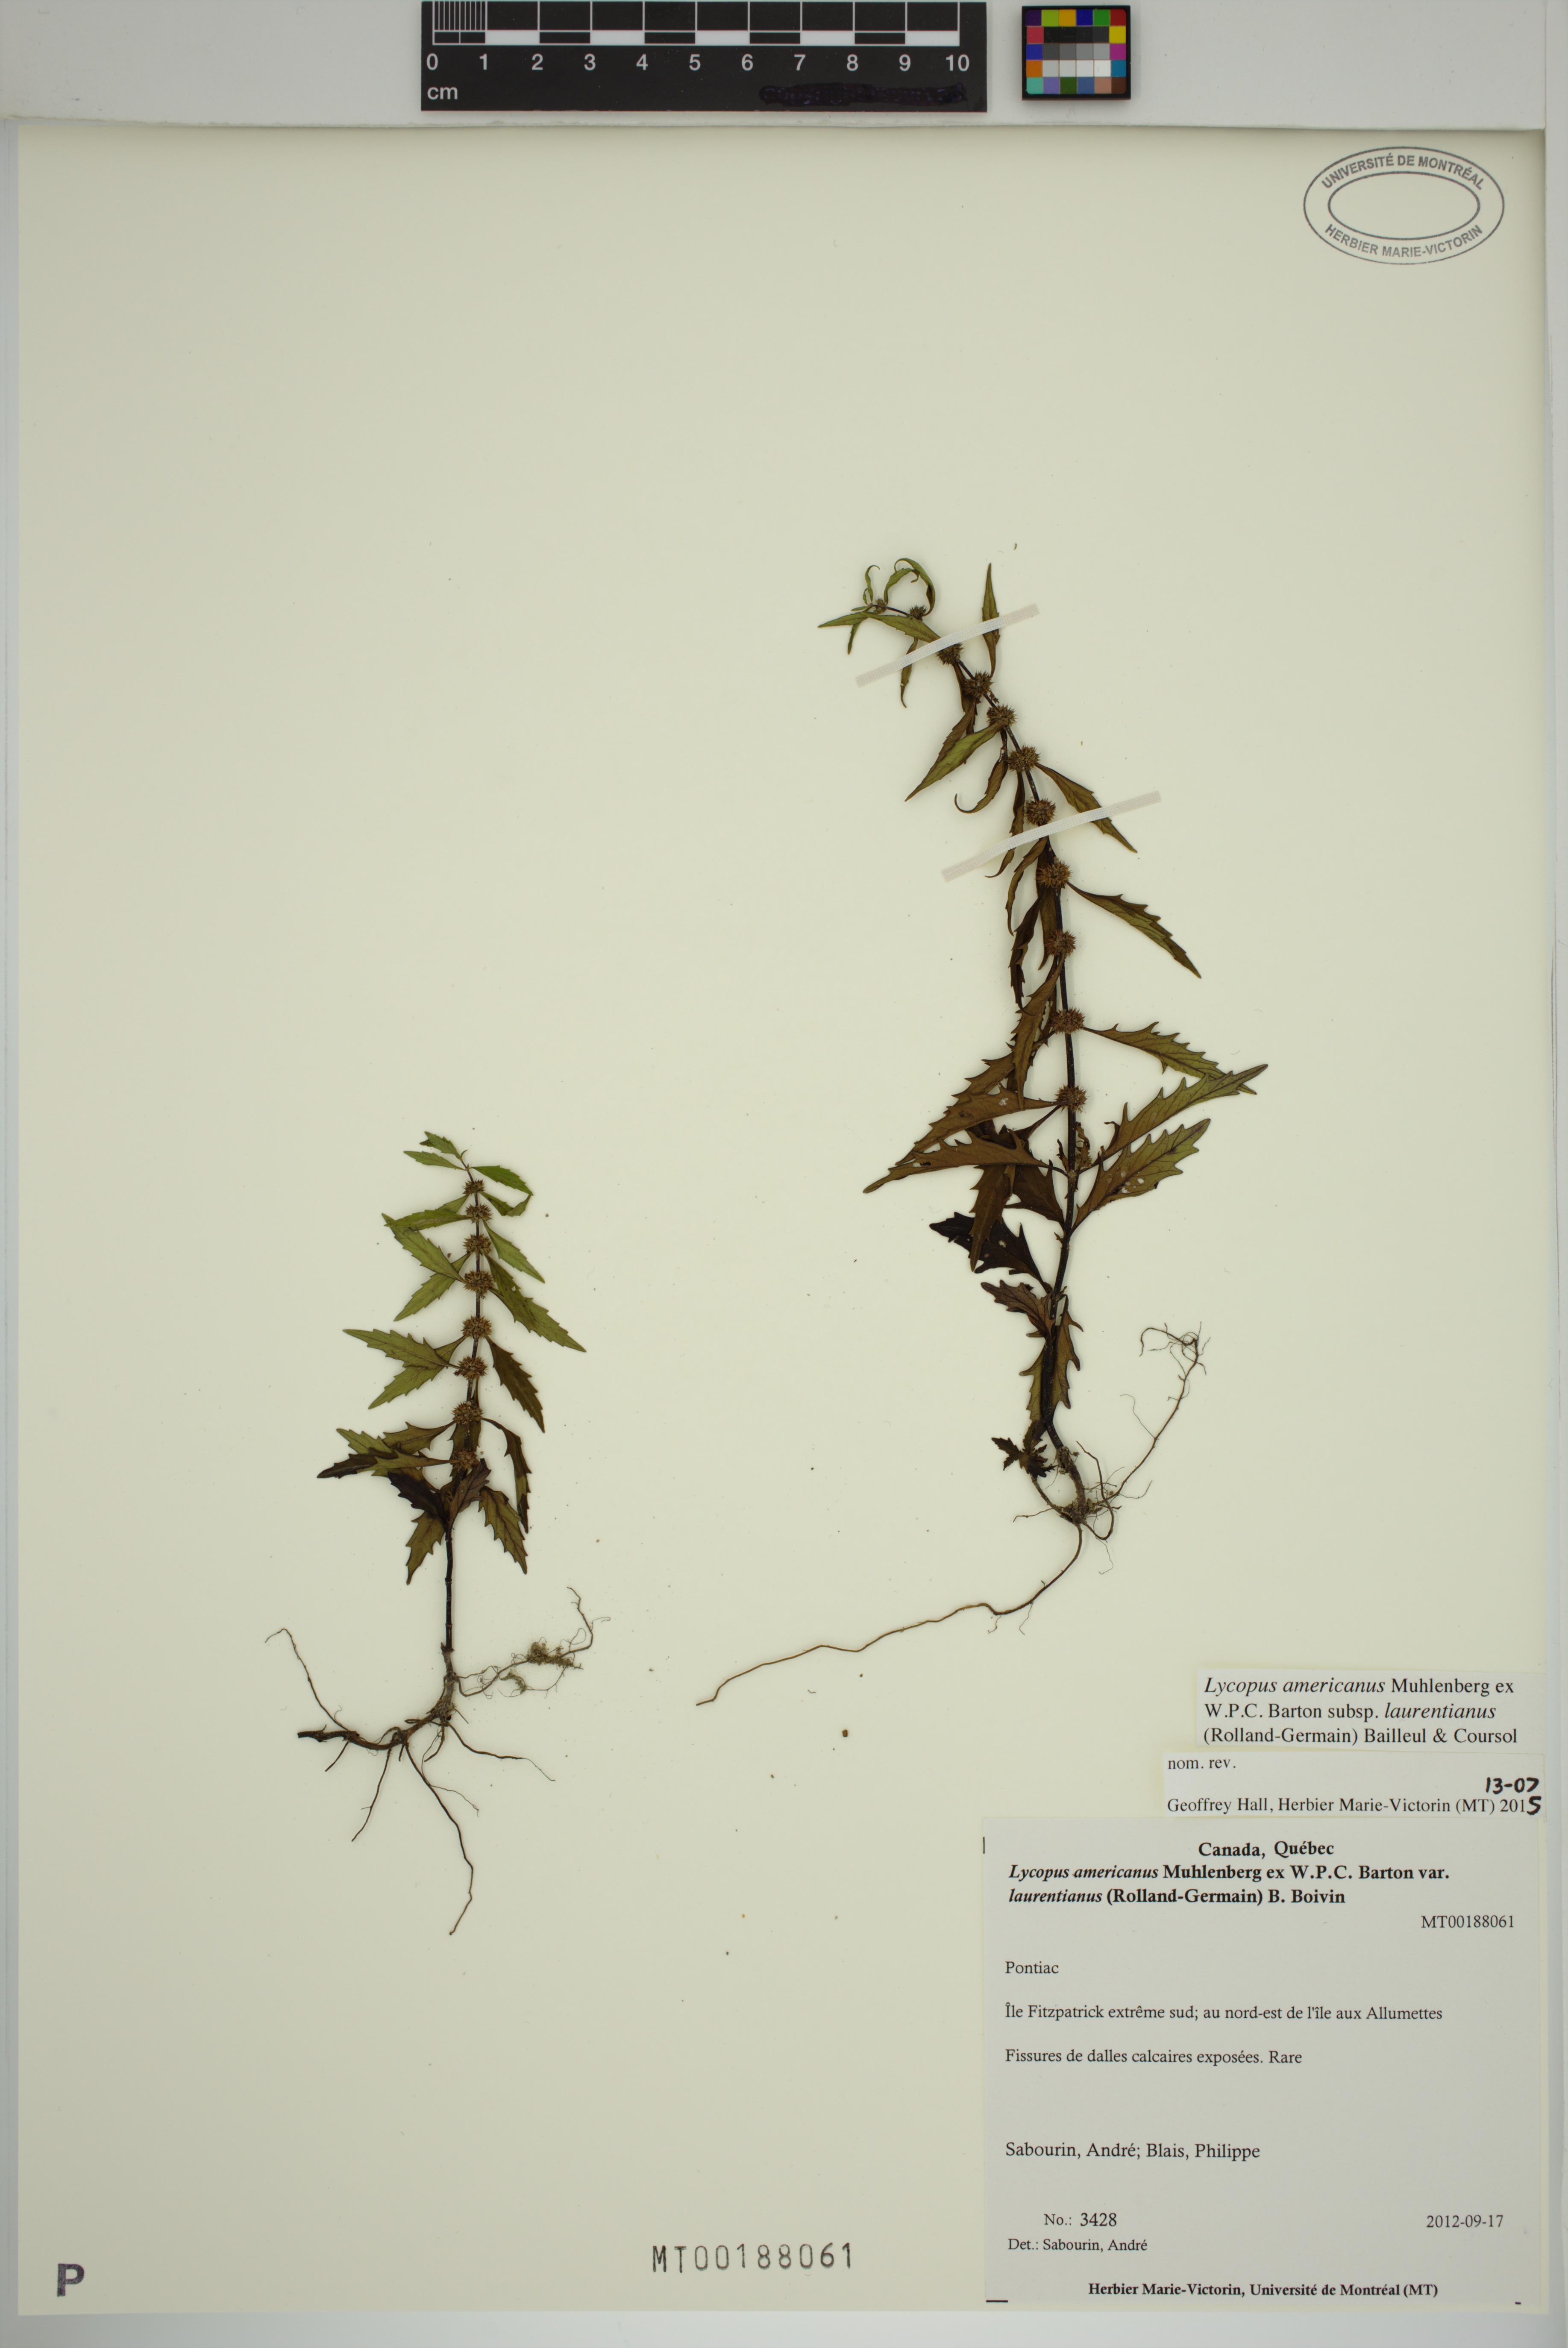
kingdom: Plantae
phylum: Tracheophyta
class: Magnoliopsida
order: Lamiales
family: Lamiaceae
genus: Lycopus
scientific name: Lycopus americanus
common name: American bugleweed
